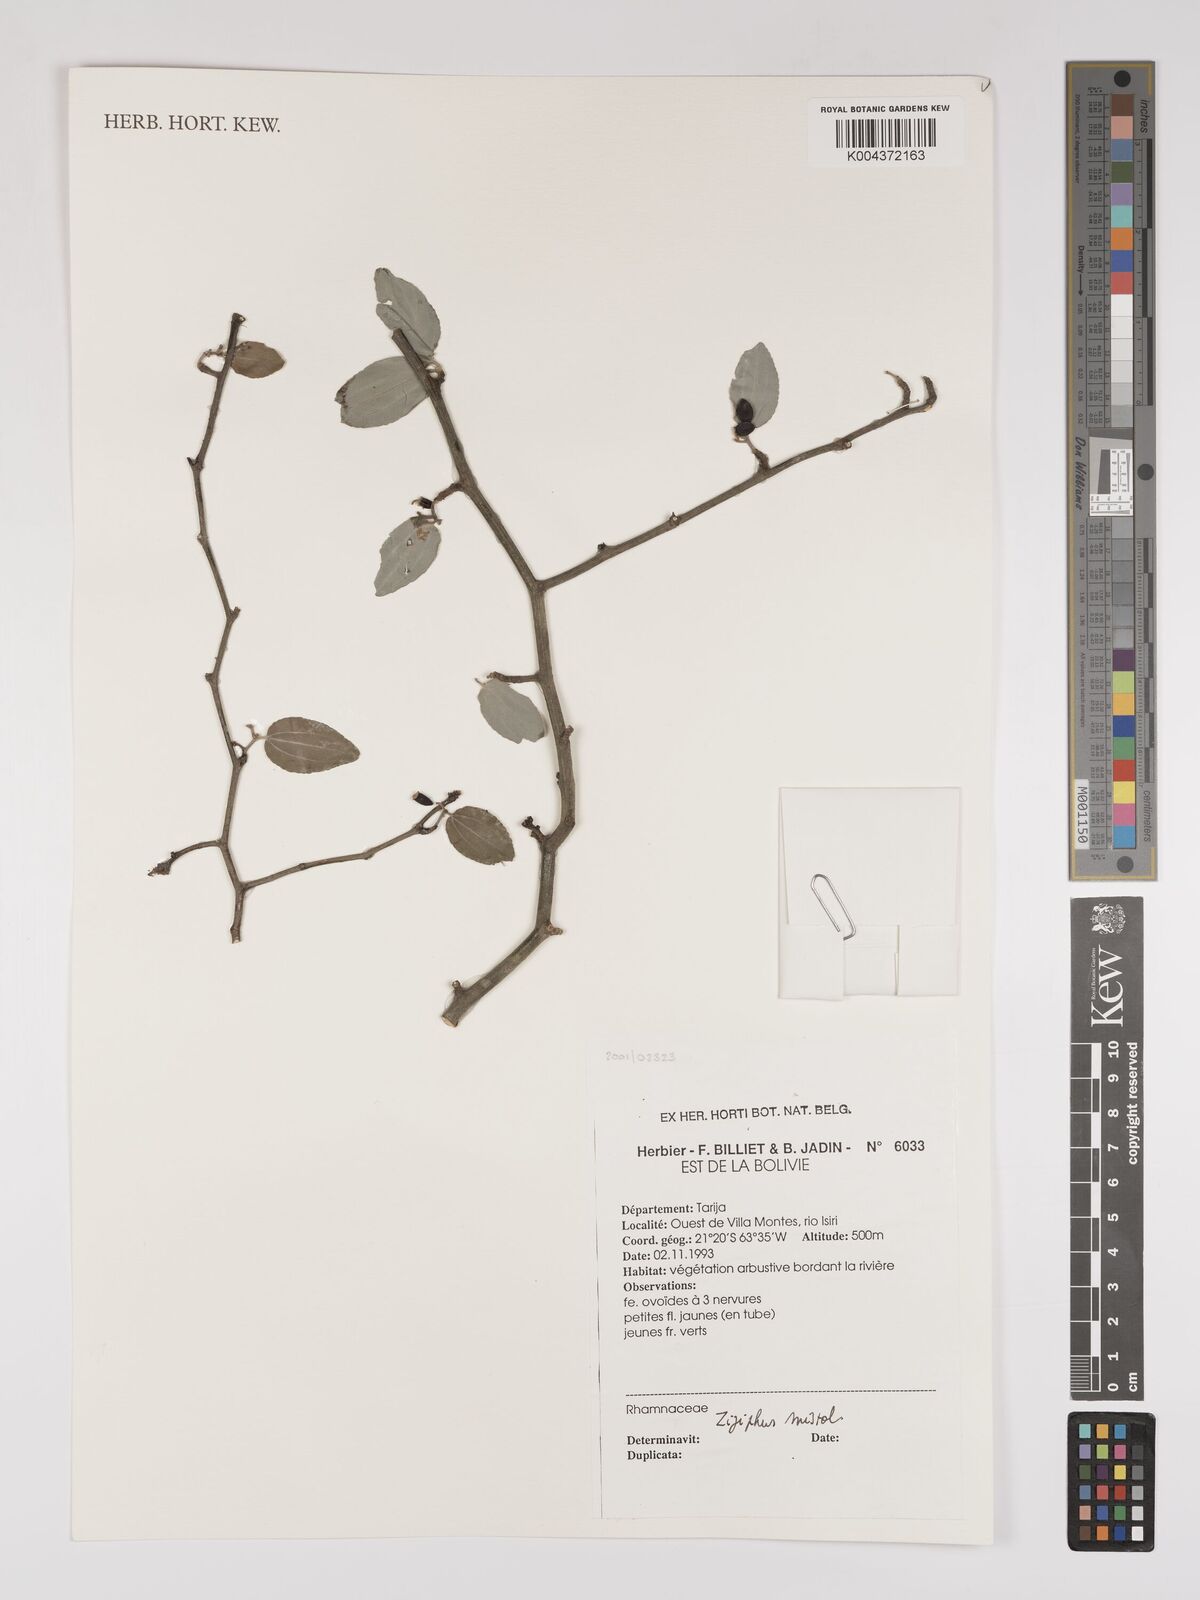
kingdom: Plantae
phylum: Tracheophyta
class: Magnoliopsida
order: Rosales
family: Rhamnaceae
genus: Sarcomphalus
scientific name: Sarcomphalus mistol
